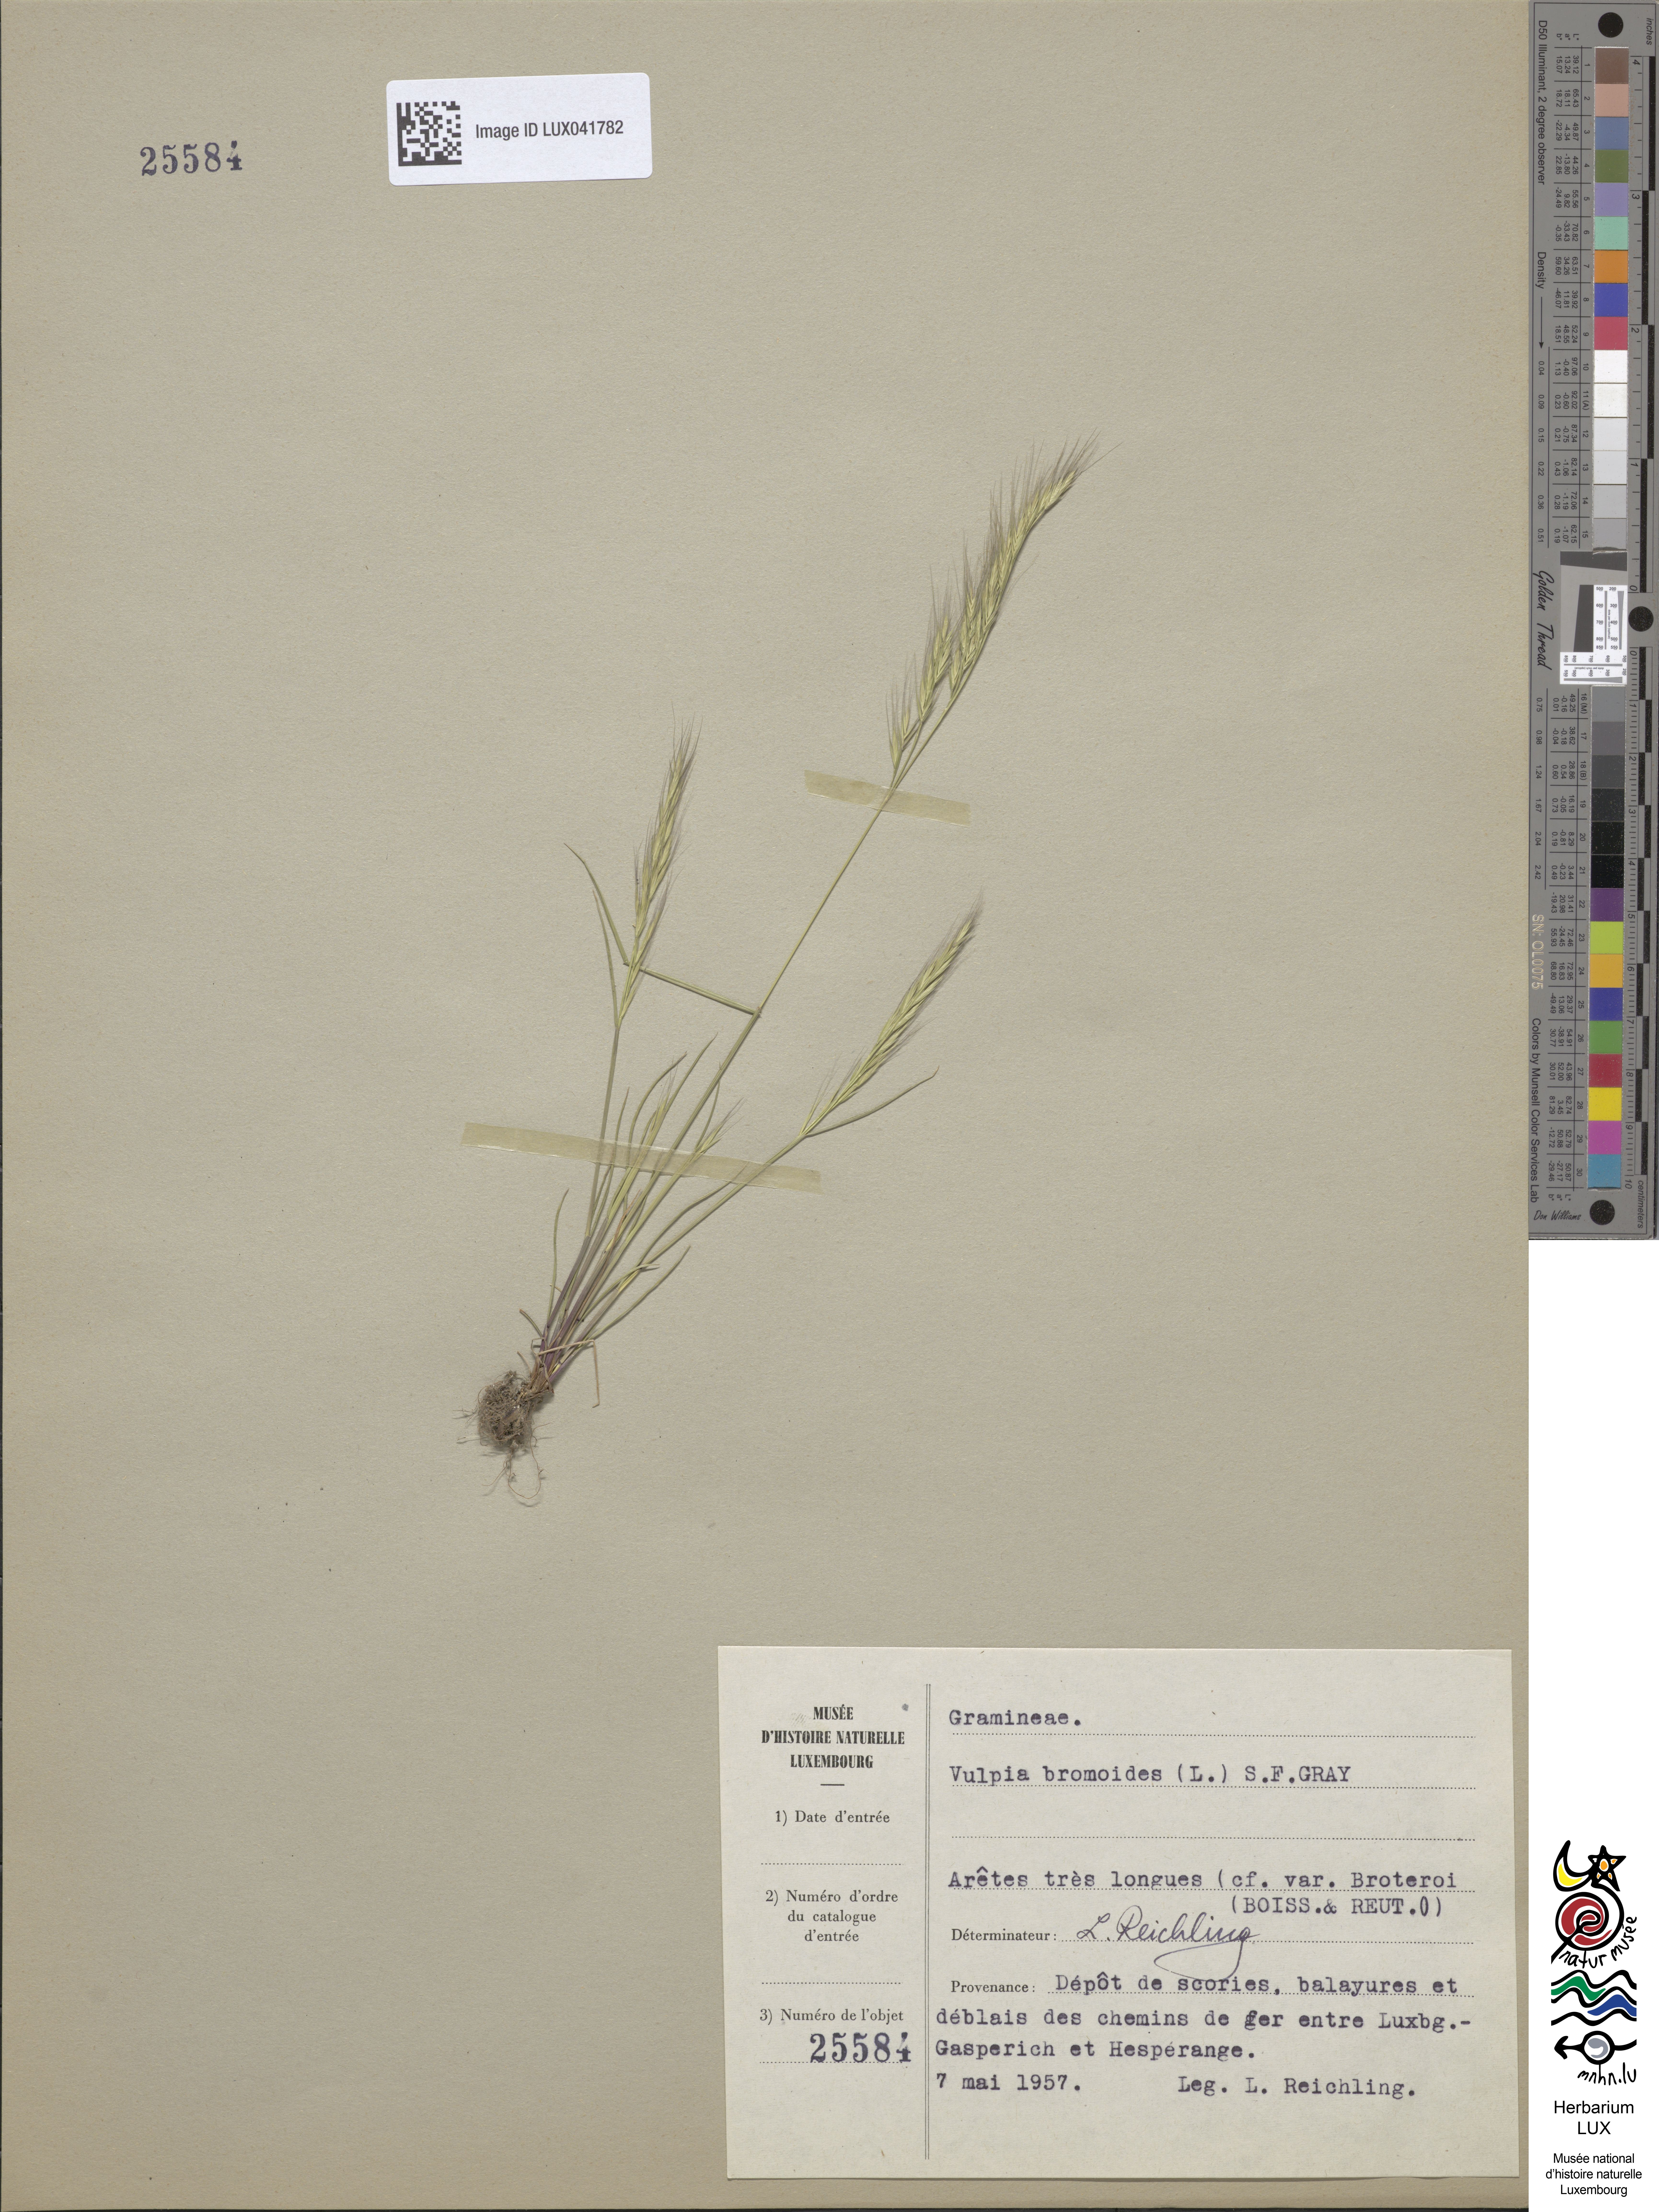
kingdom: Plantae
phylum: Tracheophyta
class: Liliopsida
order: Poales
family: Poaceae
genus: Festuca
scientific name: Festuca bromoides
